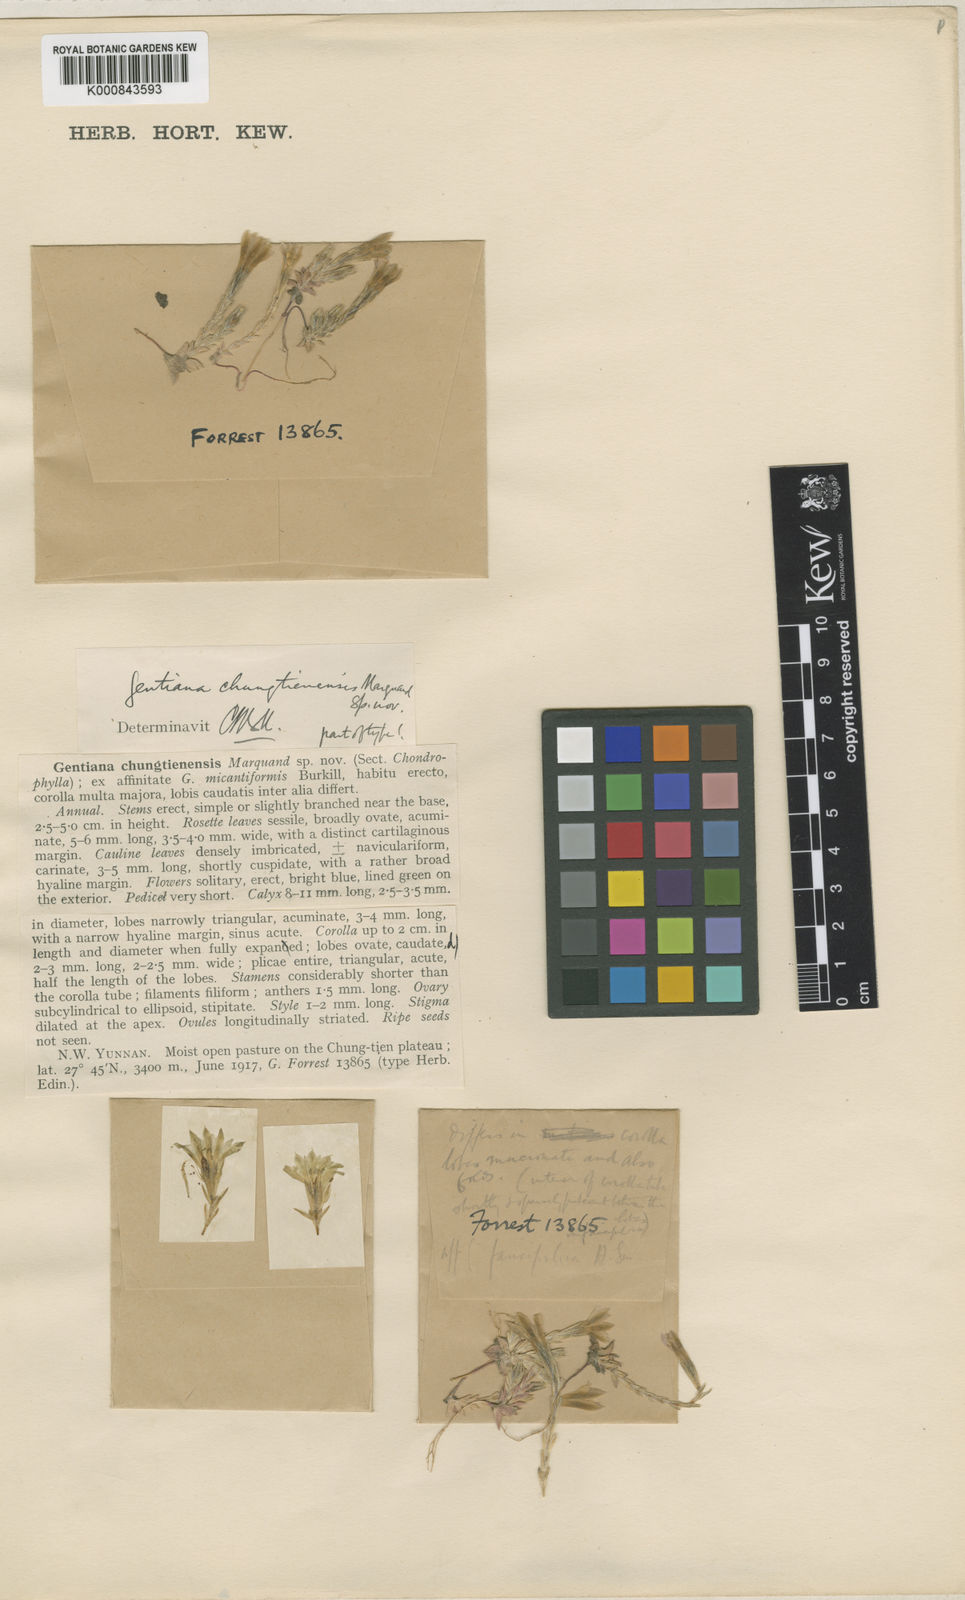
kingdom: Plantae
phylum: Tracheophyta
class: Magnoliopsida
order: Gentianales
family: Gentianaceae
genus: Gentiana
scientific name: Gentiana chungtienensis
